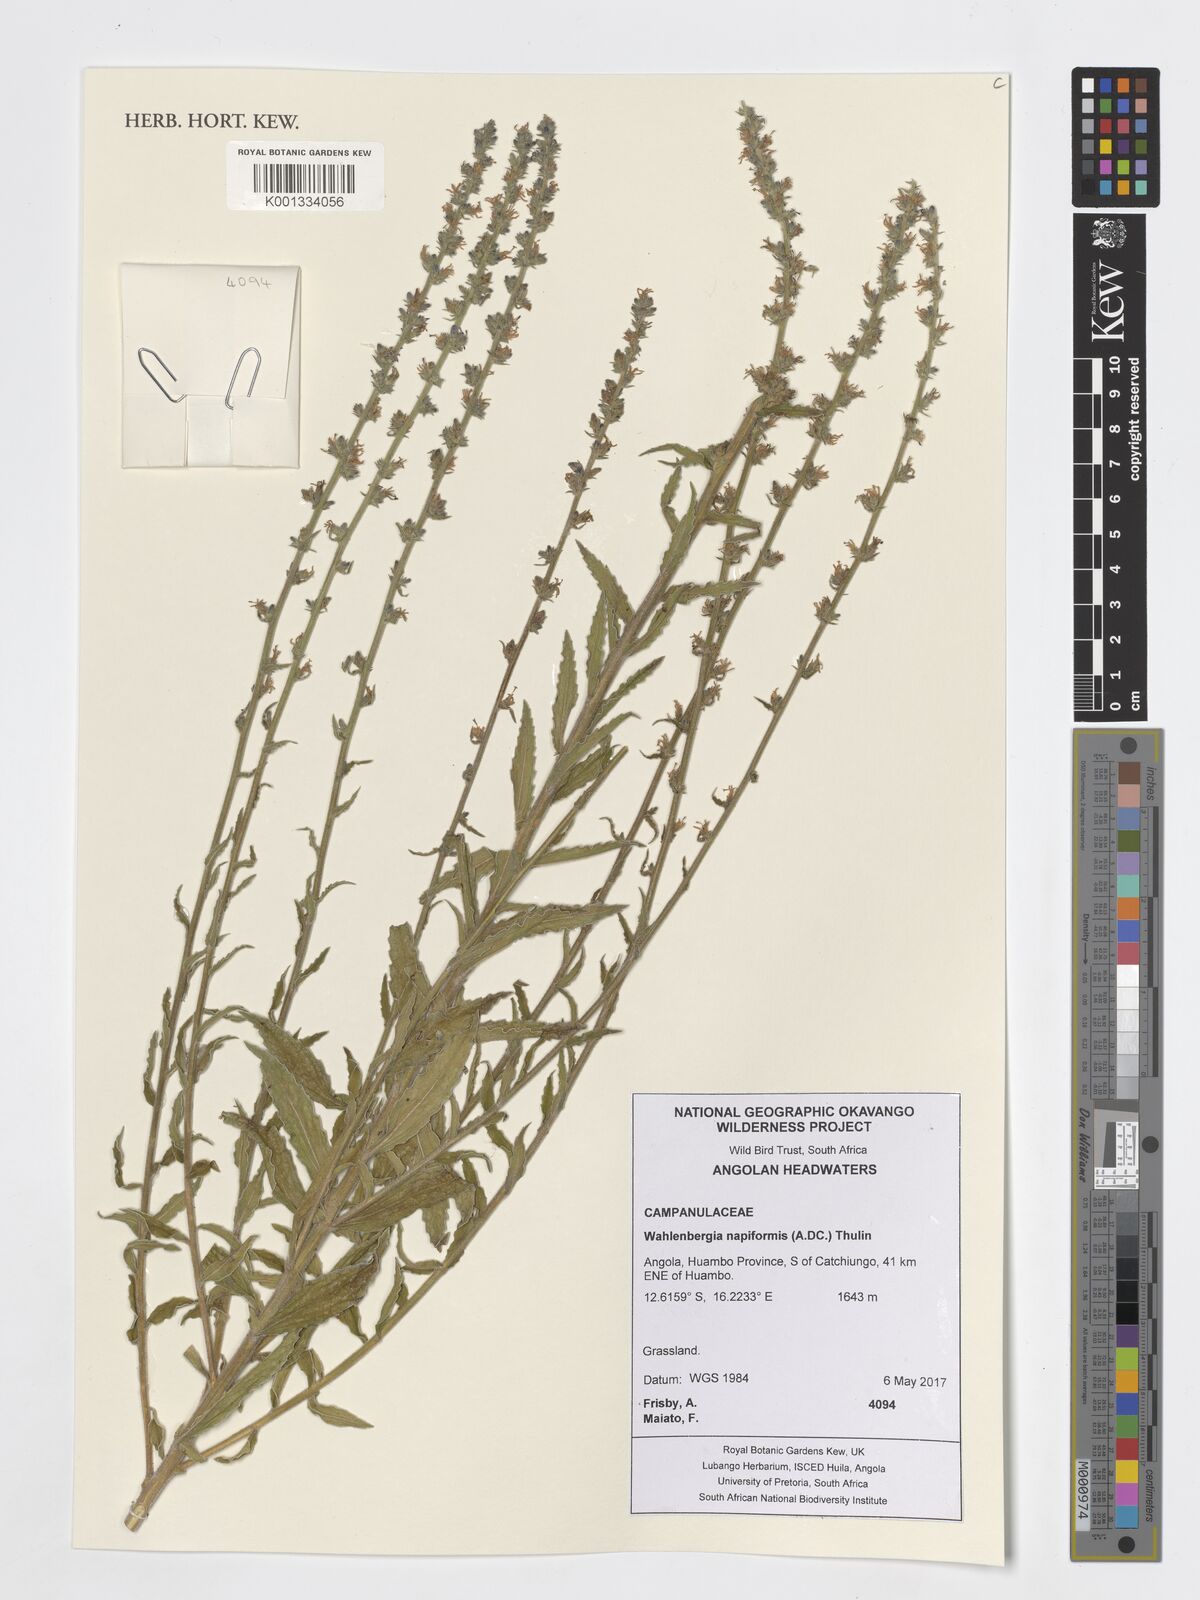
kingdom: Plantae
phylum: Tracheophyta
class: Magnoliopsida
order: Asterales
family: Campanulaceae
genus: Wahlenbergia
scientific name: Wahlenbergia napiformis
